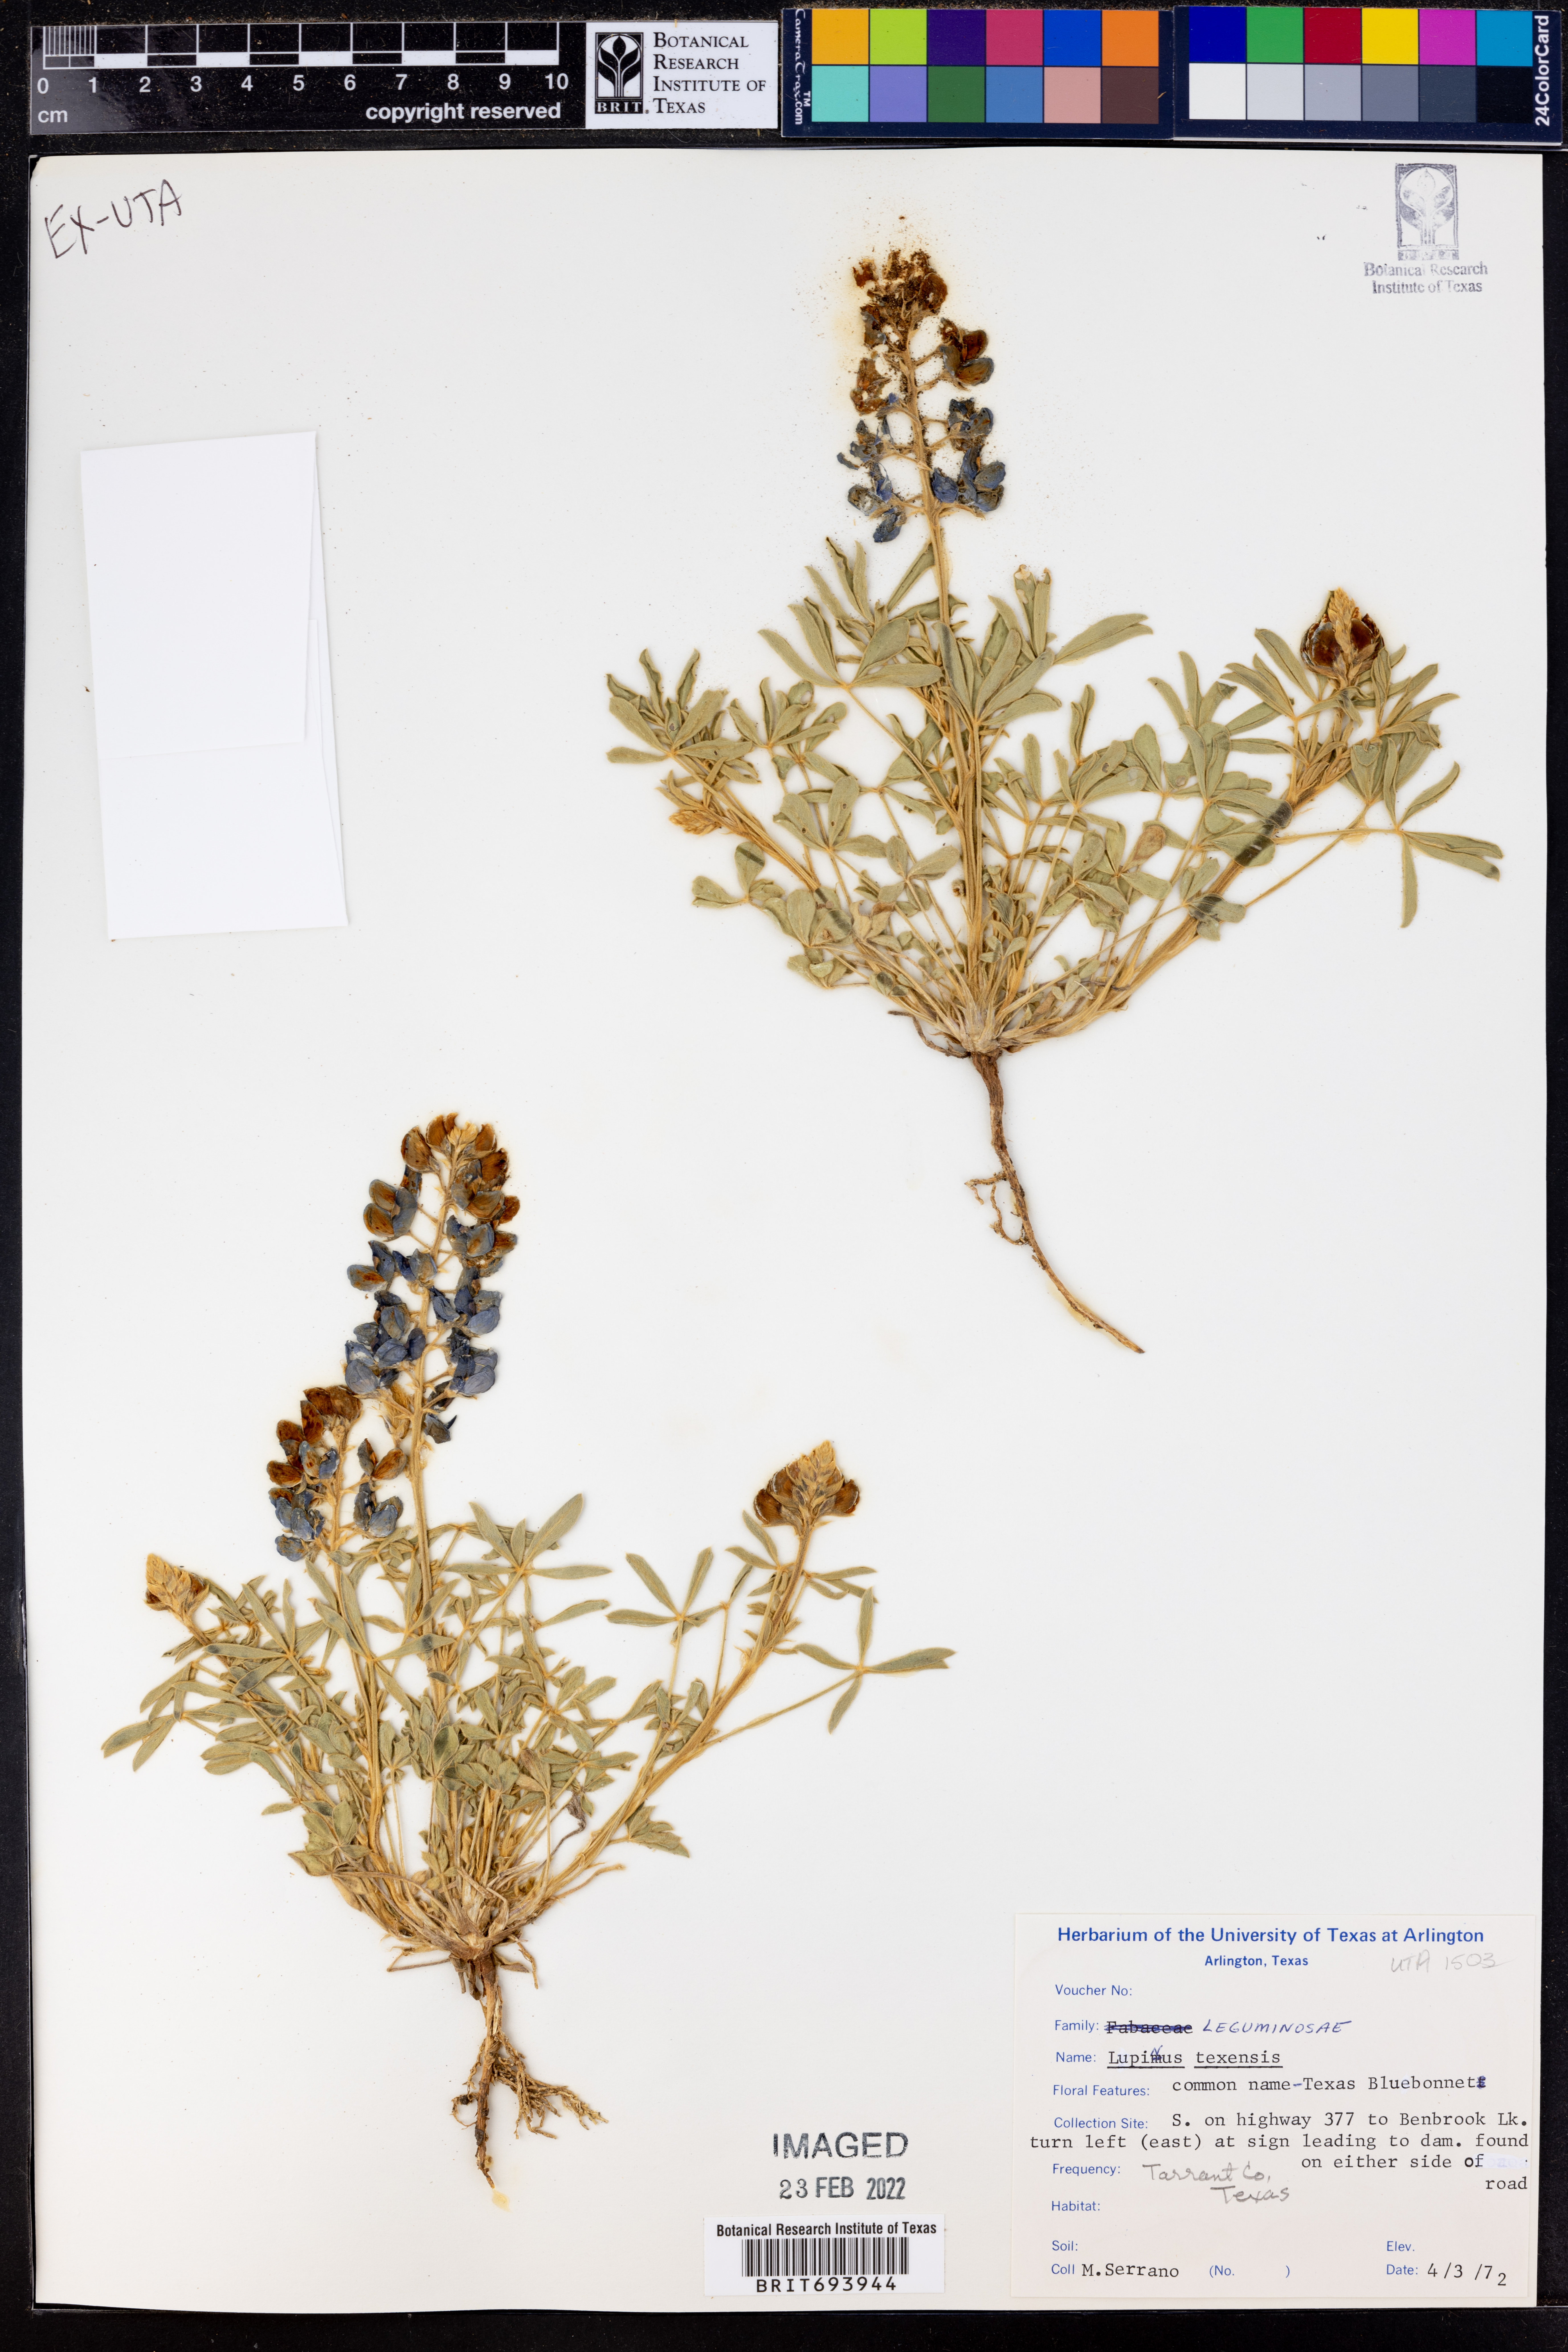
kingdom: Plantae
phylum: Tracheophyta
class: Magnoliopsida
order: Fabales
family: Fabaceae
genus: Lupinus
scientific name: Lupinus texensis
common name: Texas bluebonnet
